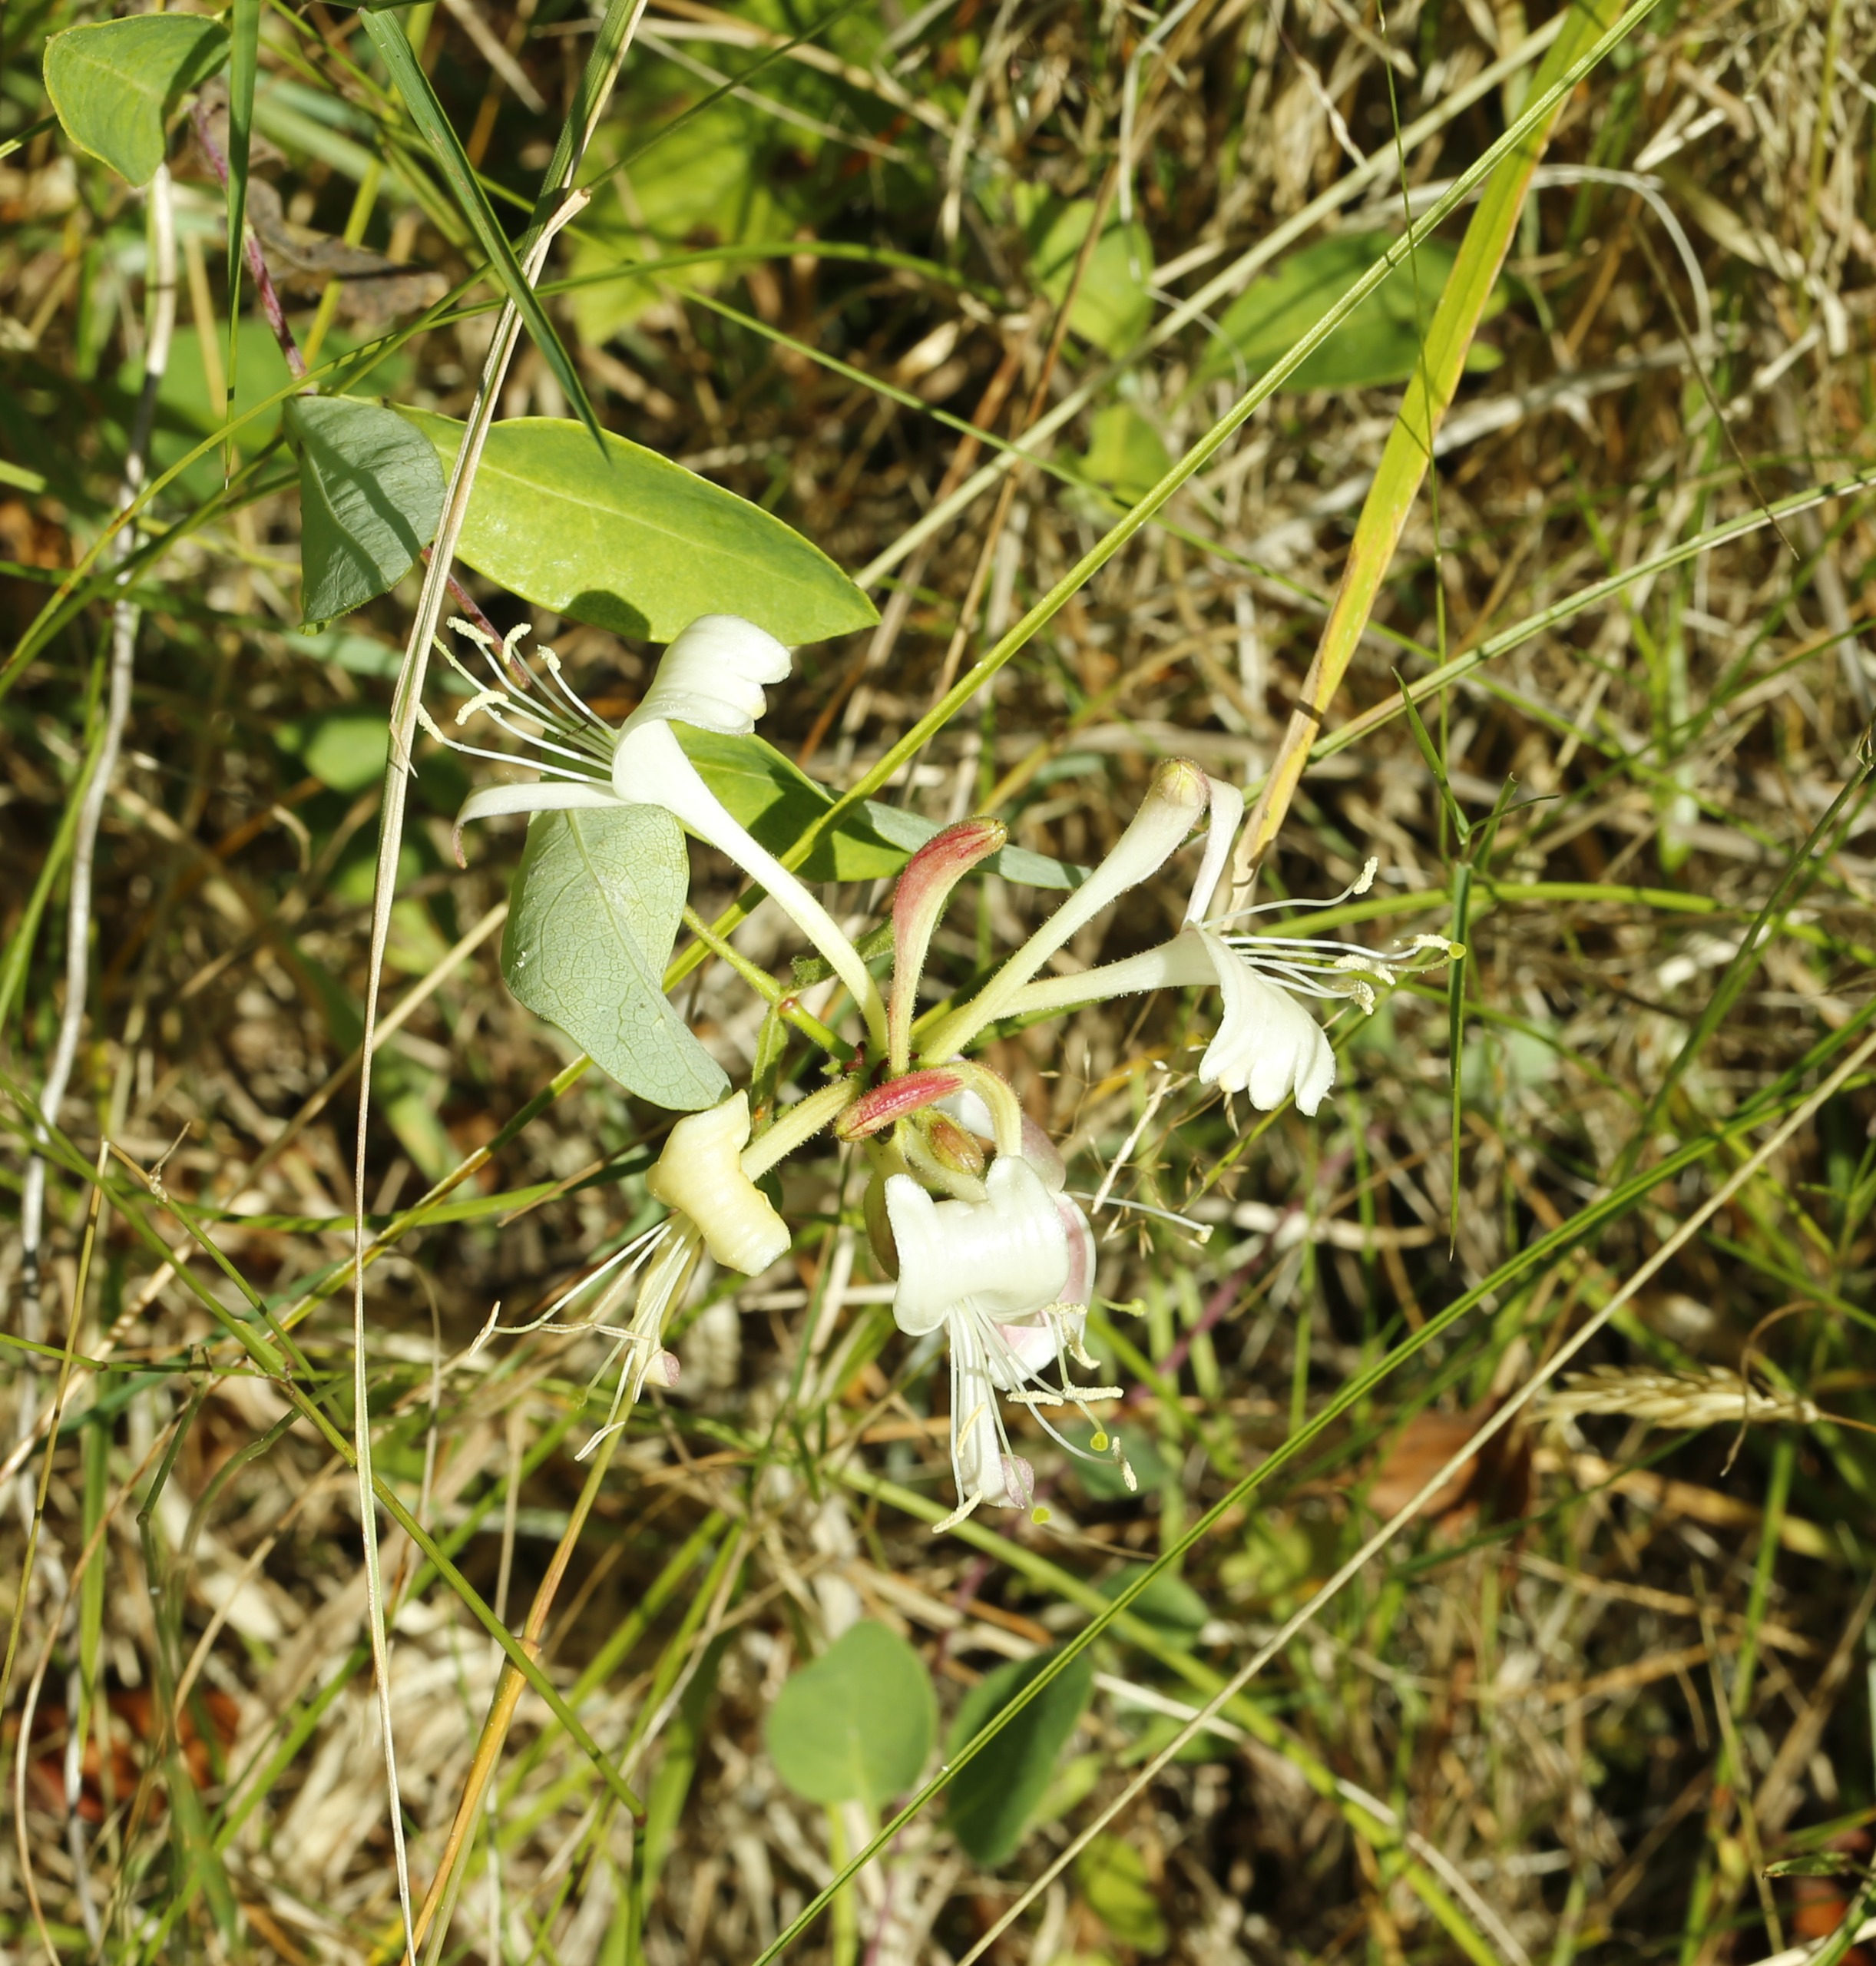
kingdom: Plantae
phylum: Tracheophyta
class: Magnoliopsida
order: Dipsacales
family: Caprifoliaceae
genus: Lonicera
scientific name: Lonicera periclymenum
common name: Almindelig gedeblad
